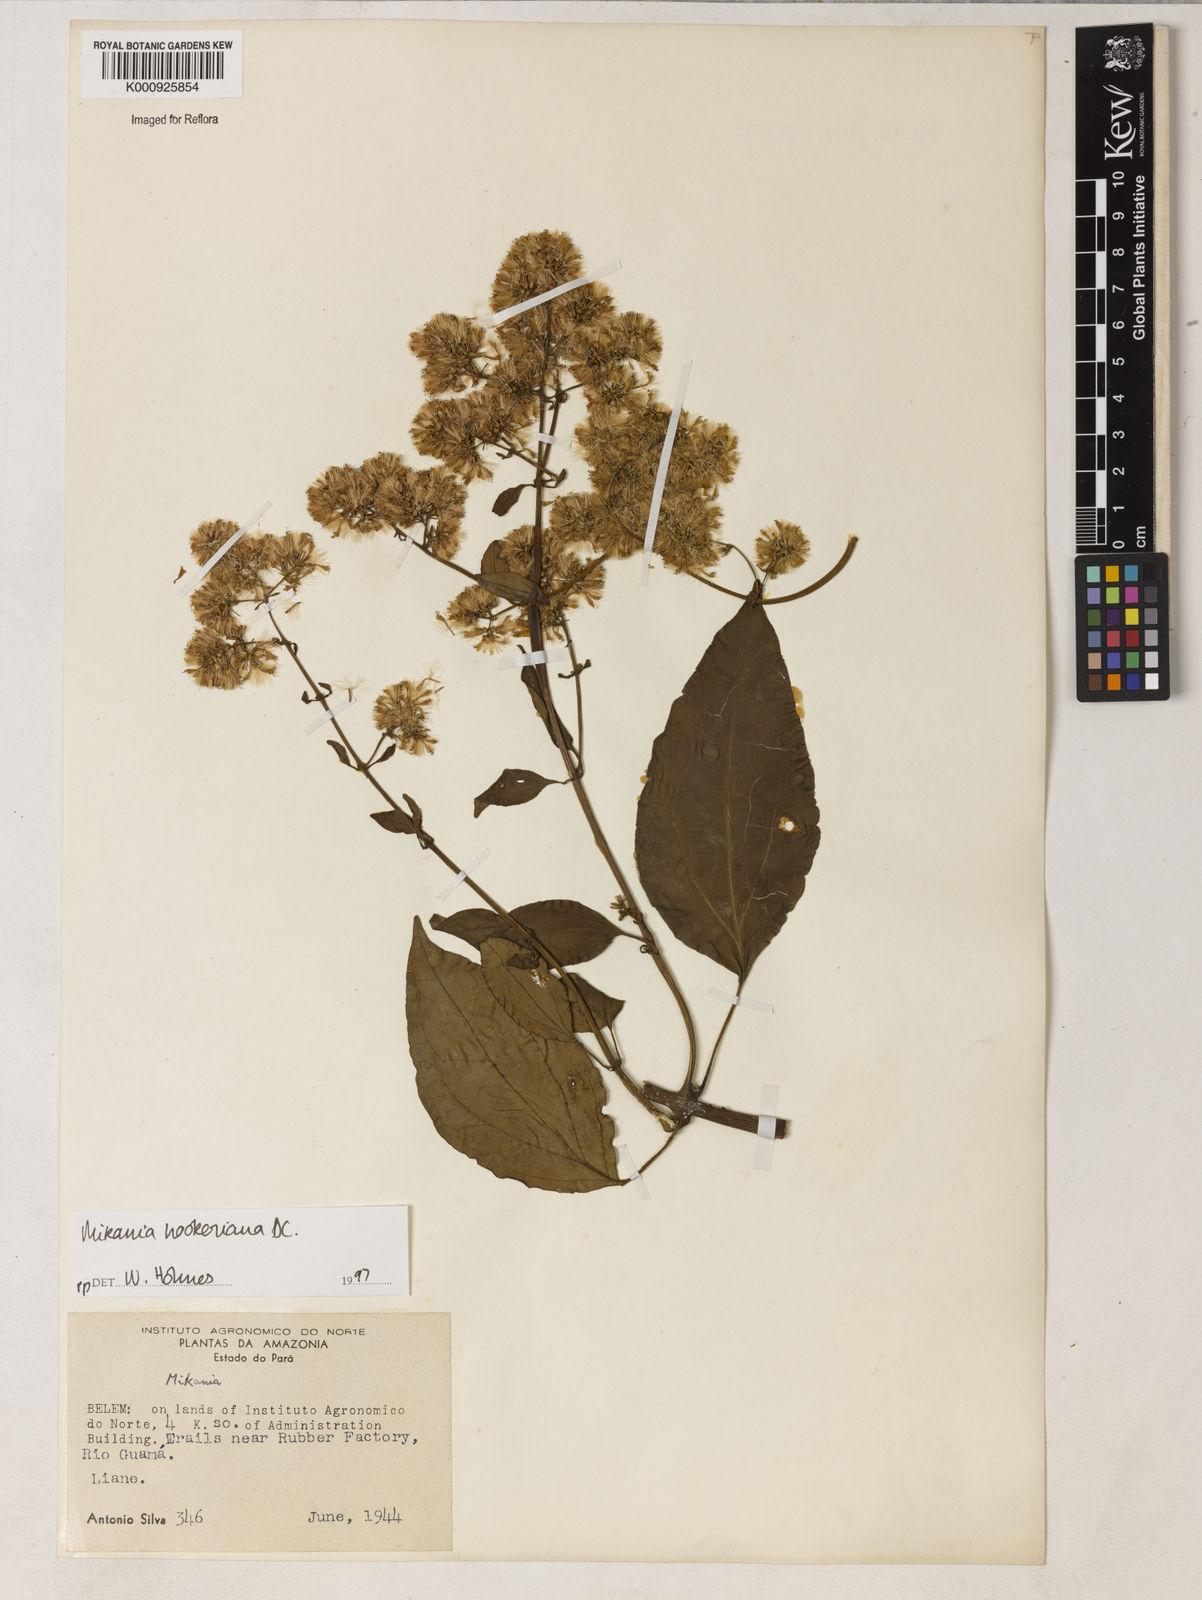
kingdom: Plantae
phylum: Tracheophyta
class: Magnoliopsida
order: Asterales
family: Asteraceae
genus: Mikania
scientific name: Mikania
